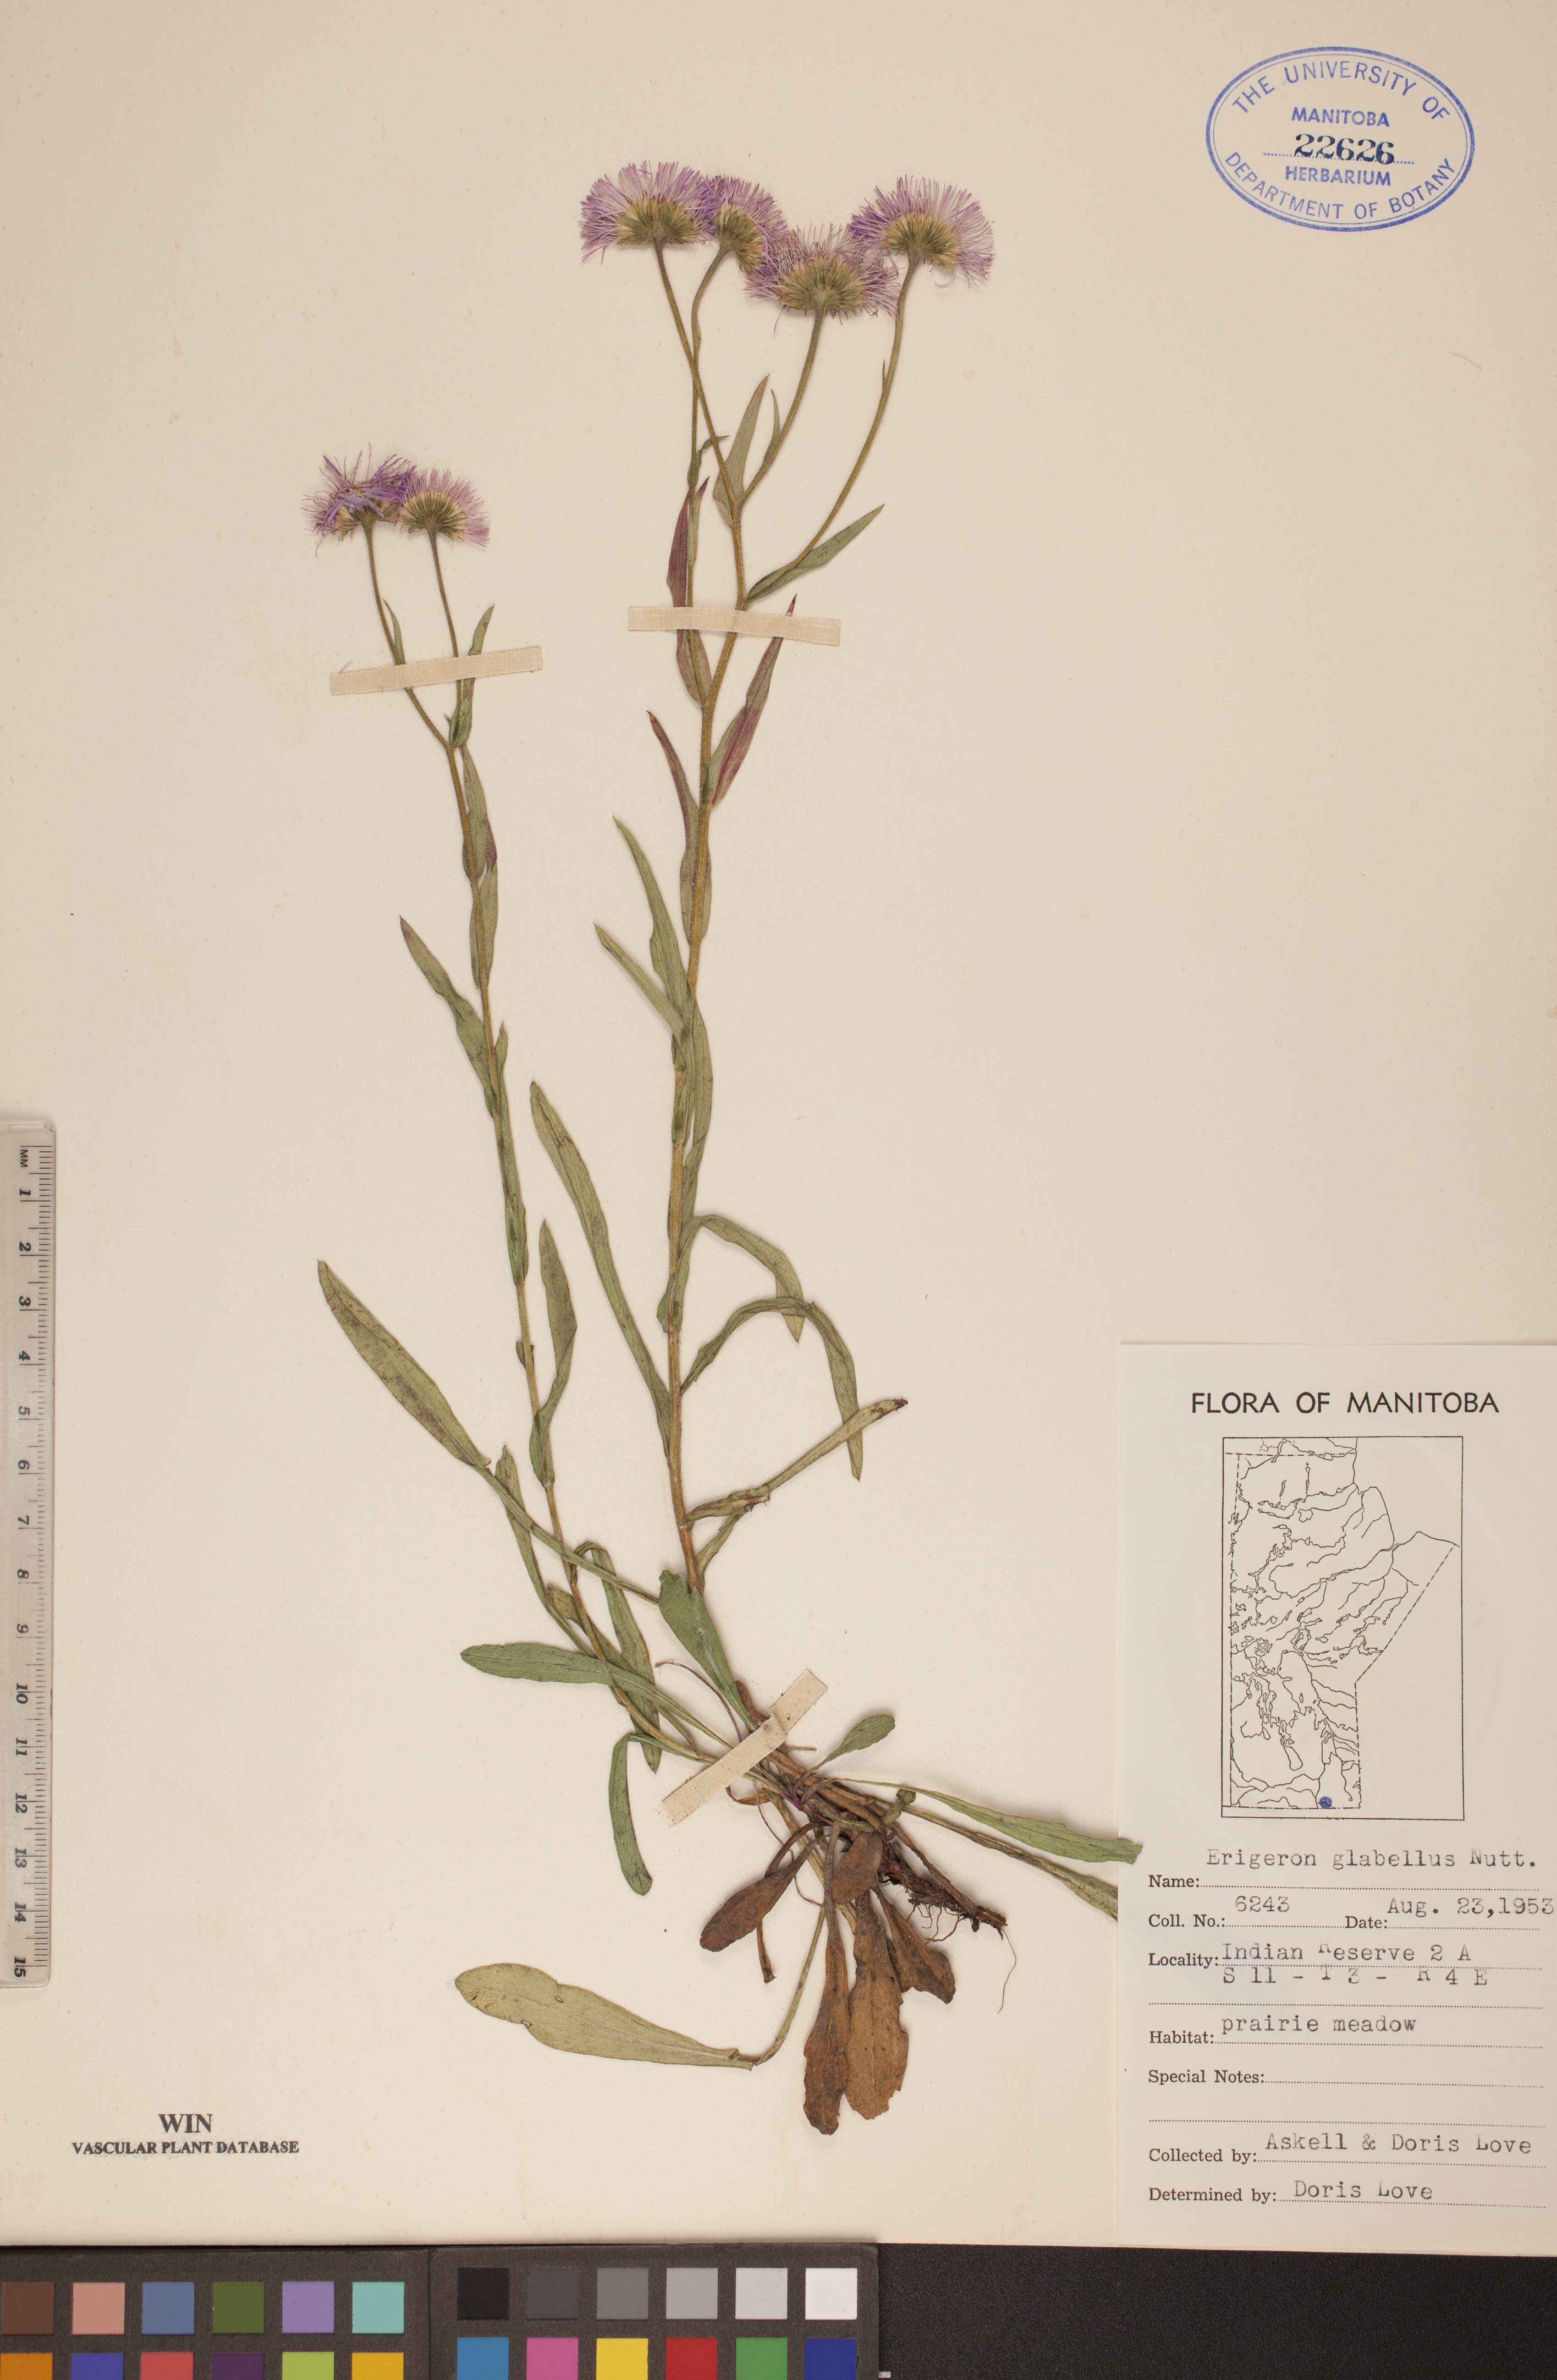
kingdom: Plantae
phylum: Tracheophyta
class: Magnoliopsida
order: Asterales
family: Asteraceae
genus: Erigeron
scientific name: Erigeron glabellus
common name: Smooth fleabane
